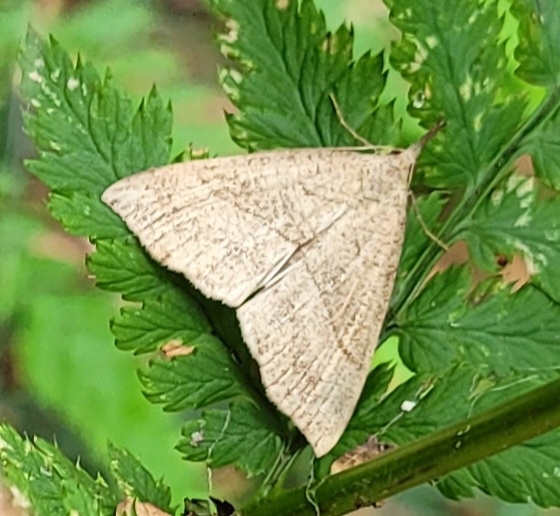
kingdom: Animalia
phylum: Arthropoda
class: Insecta
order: Lepidoptera
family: Erebidae
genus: Hypena
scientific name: Hypena proboscidalis
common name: Snudeugle
